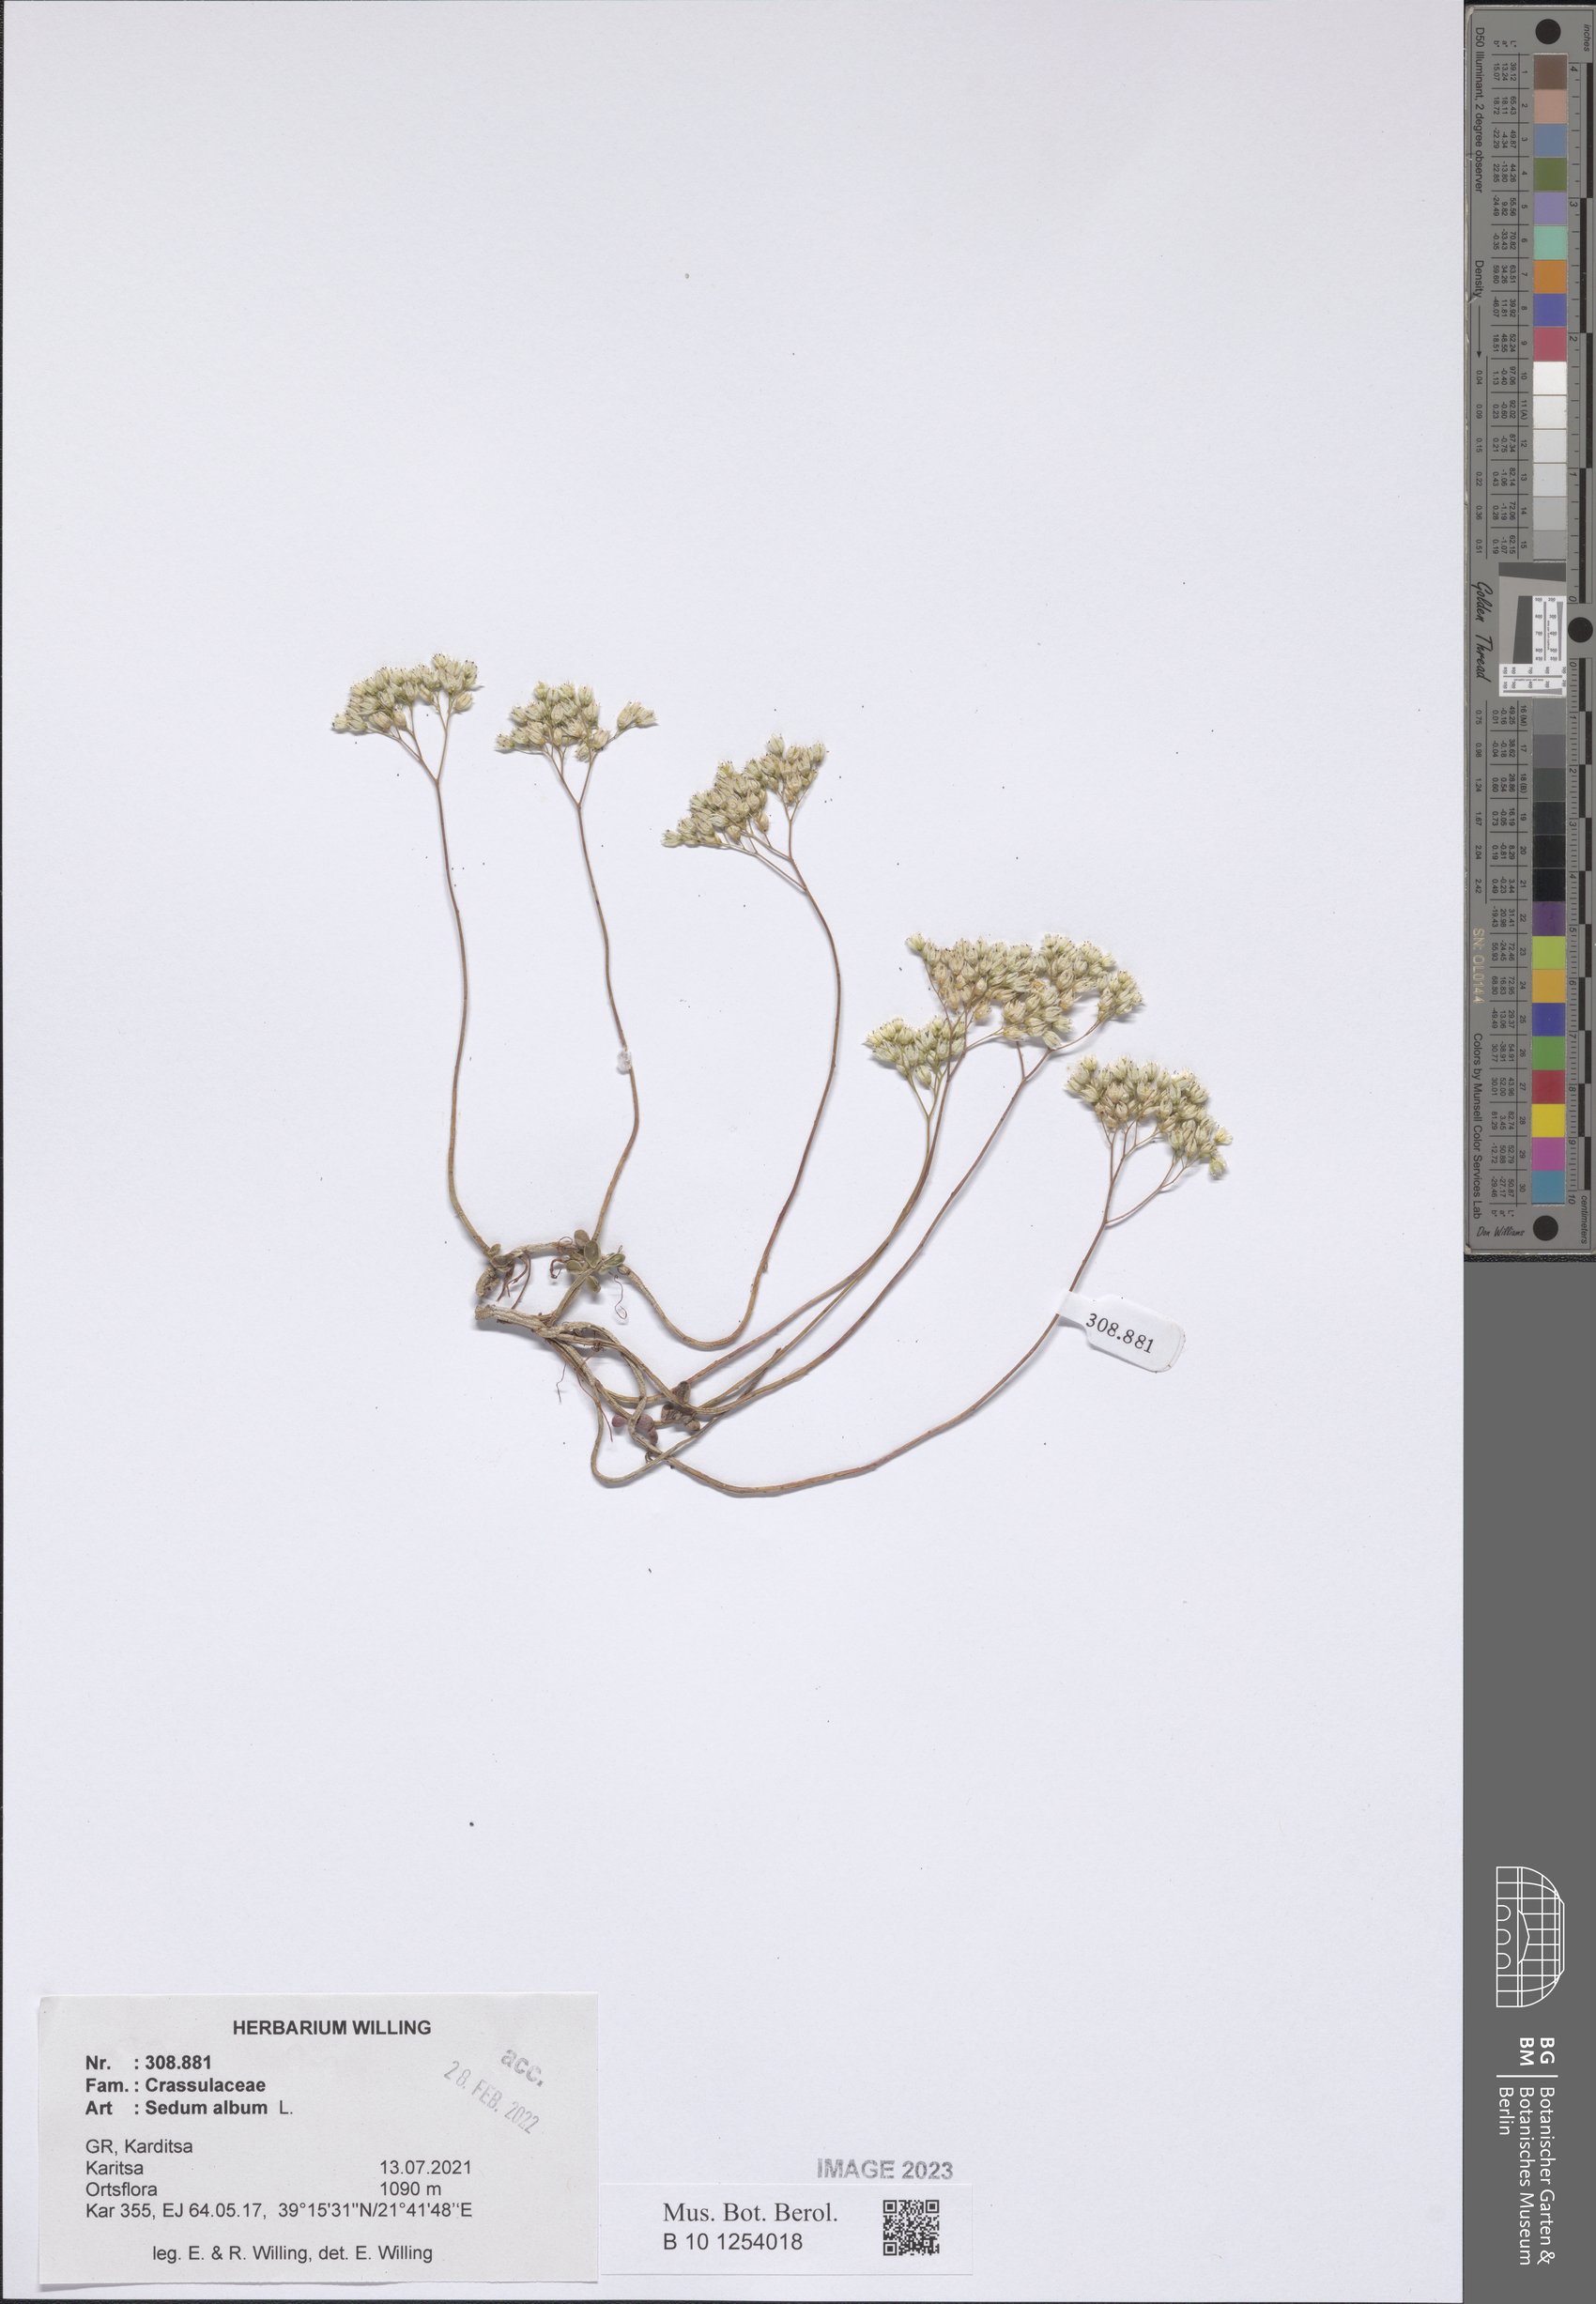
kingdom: Plantae
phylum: Tracheophyta
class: Magnoliopsida
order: Saxifragales
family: Crassulaceae
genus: Sedum
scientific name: Sedum album
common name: White stonecrop
